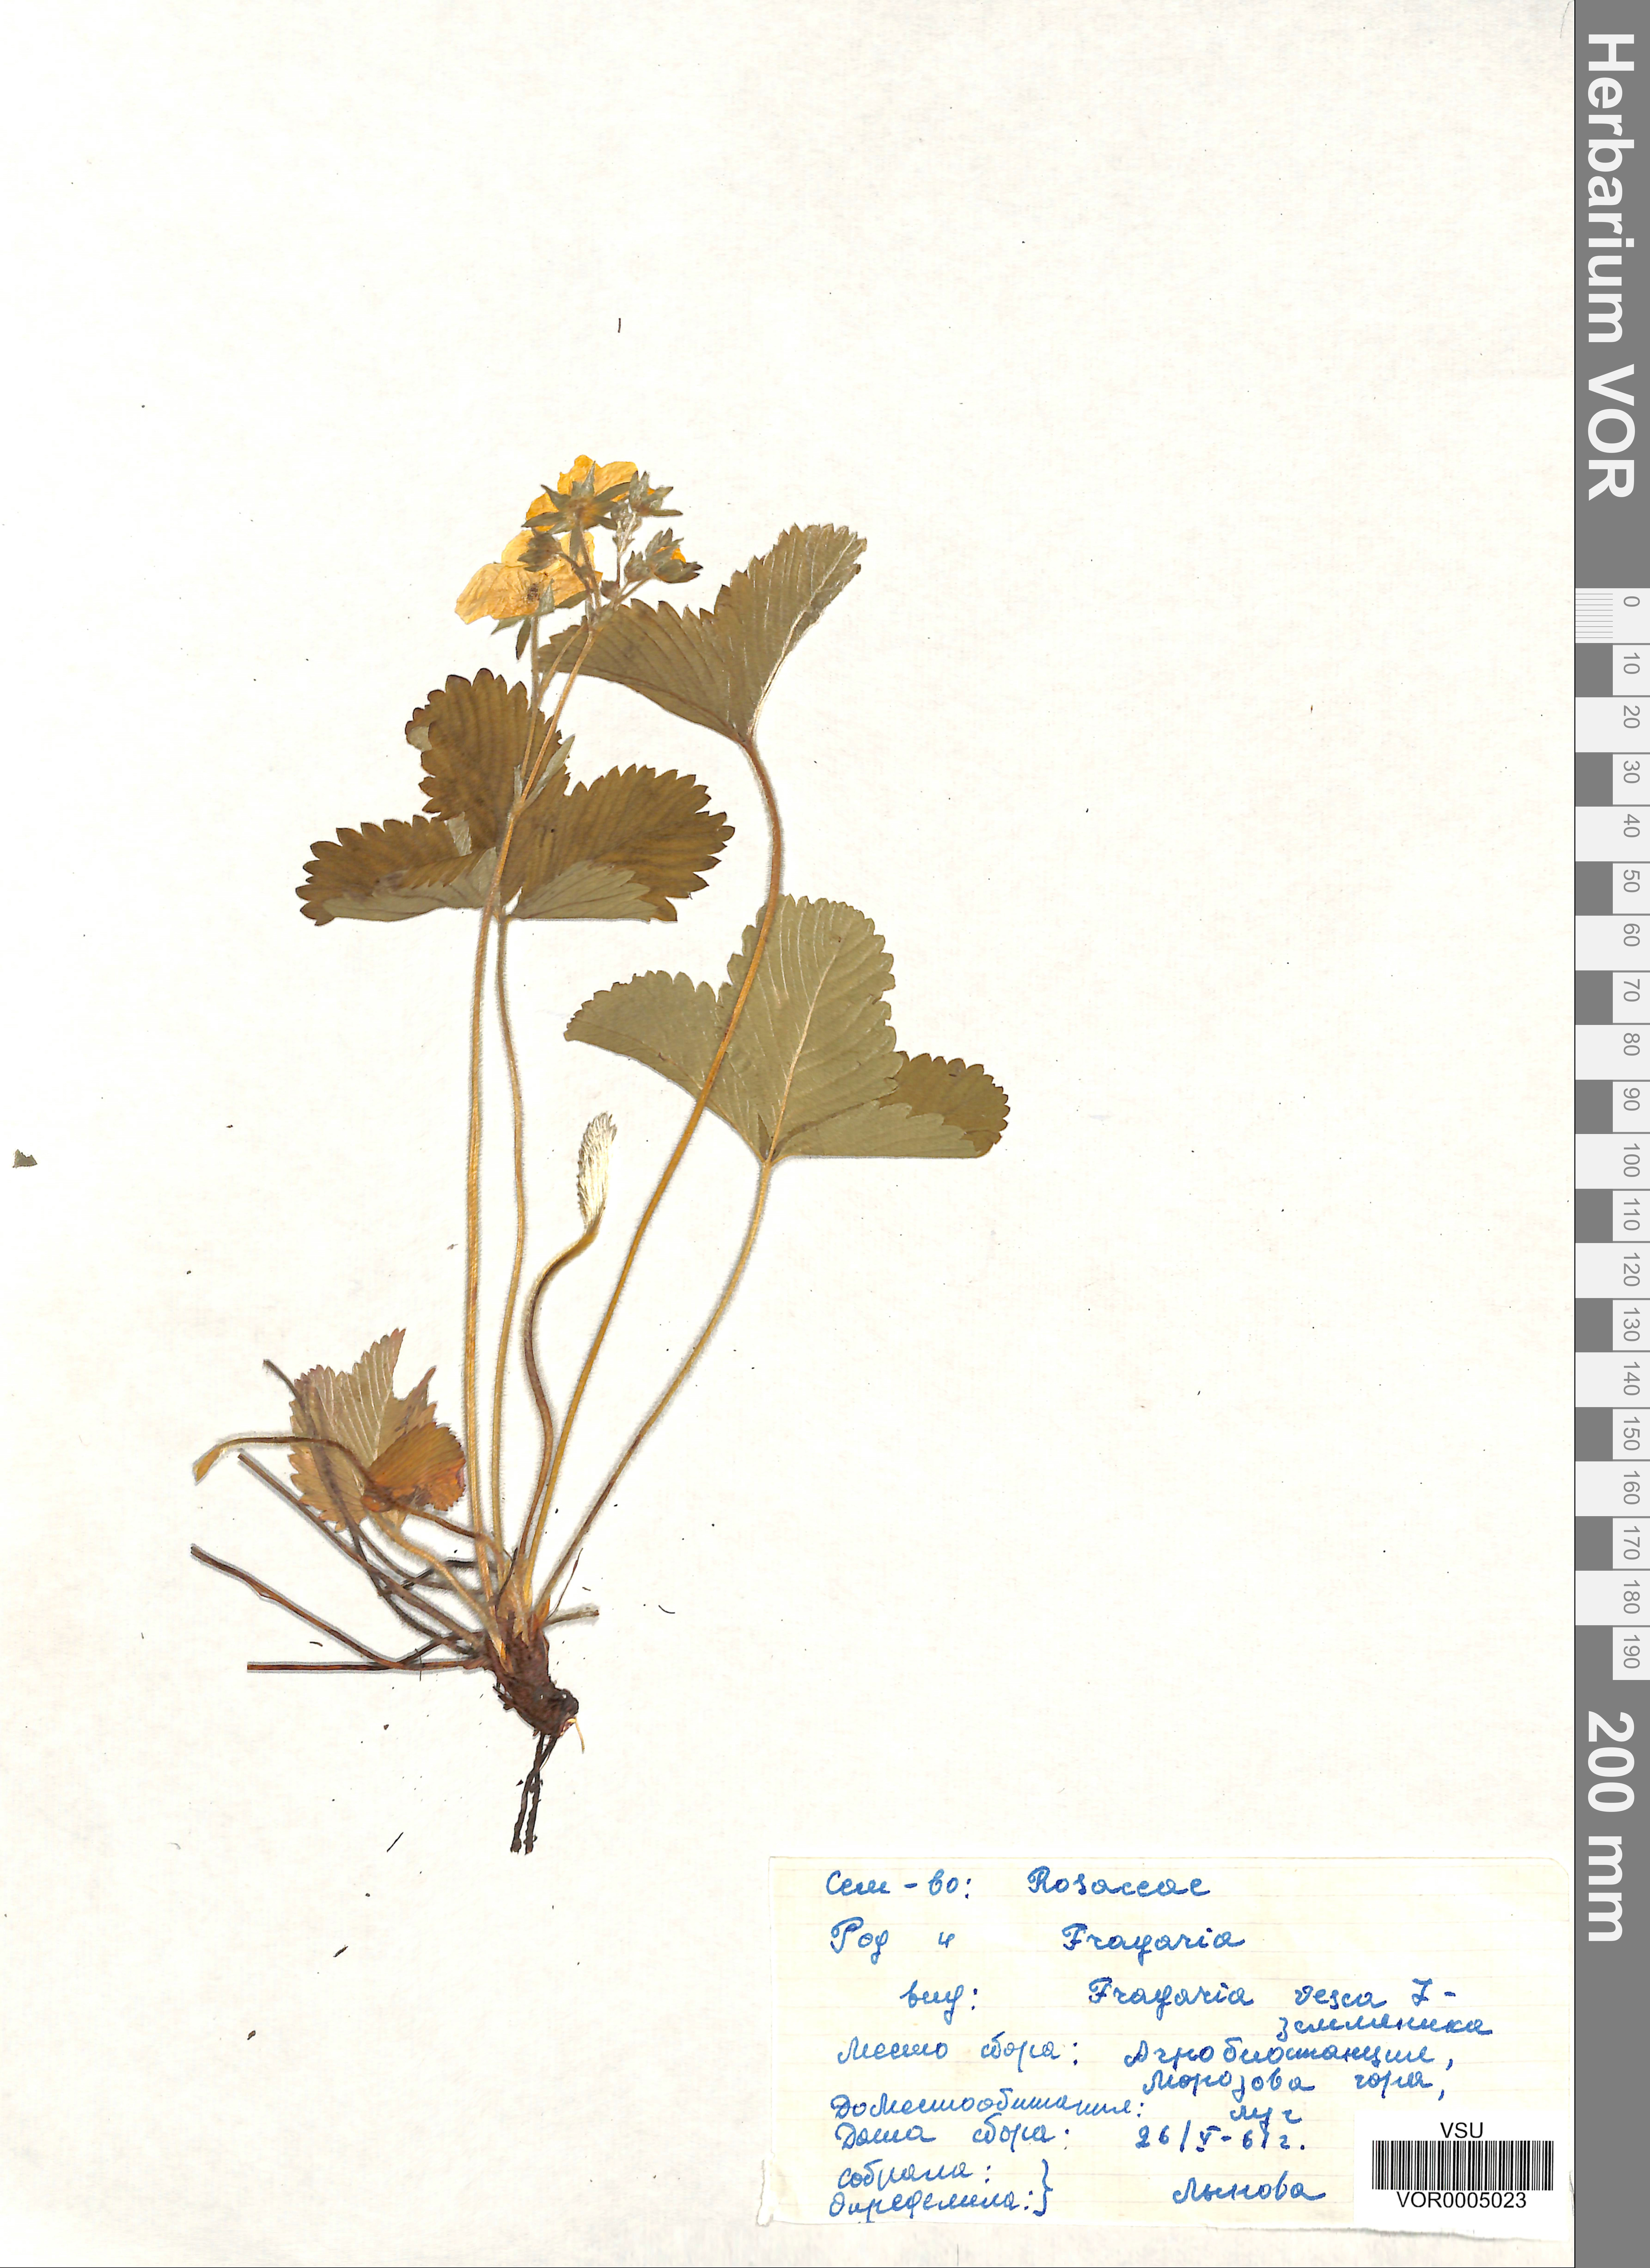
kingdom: Plantae
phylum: Tracheophyta
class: Magnoliopsida
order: Rosales
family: Rosaceae
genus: Fragaria
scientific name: Fragaria vesca
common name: Wild strawberry
